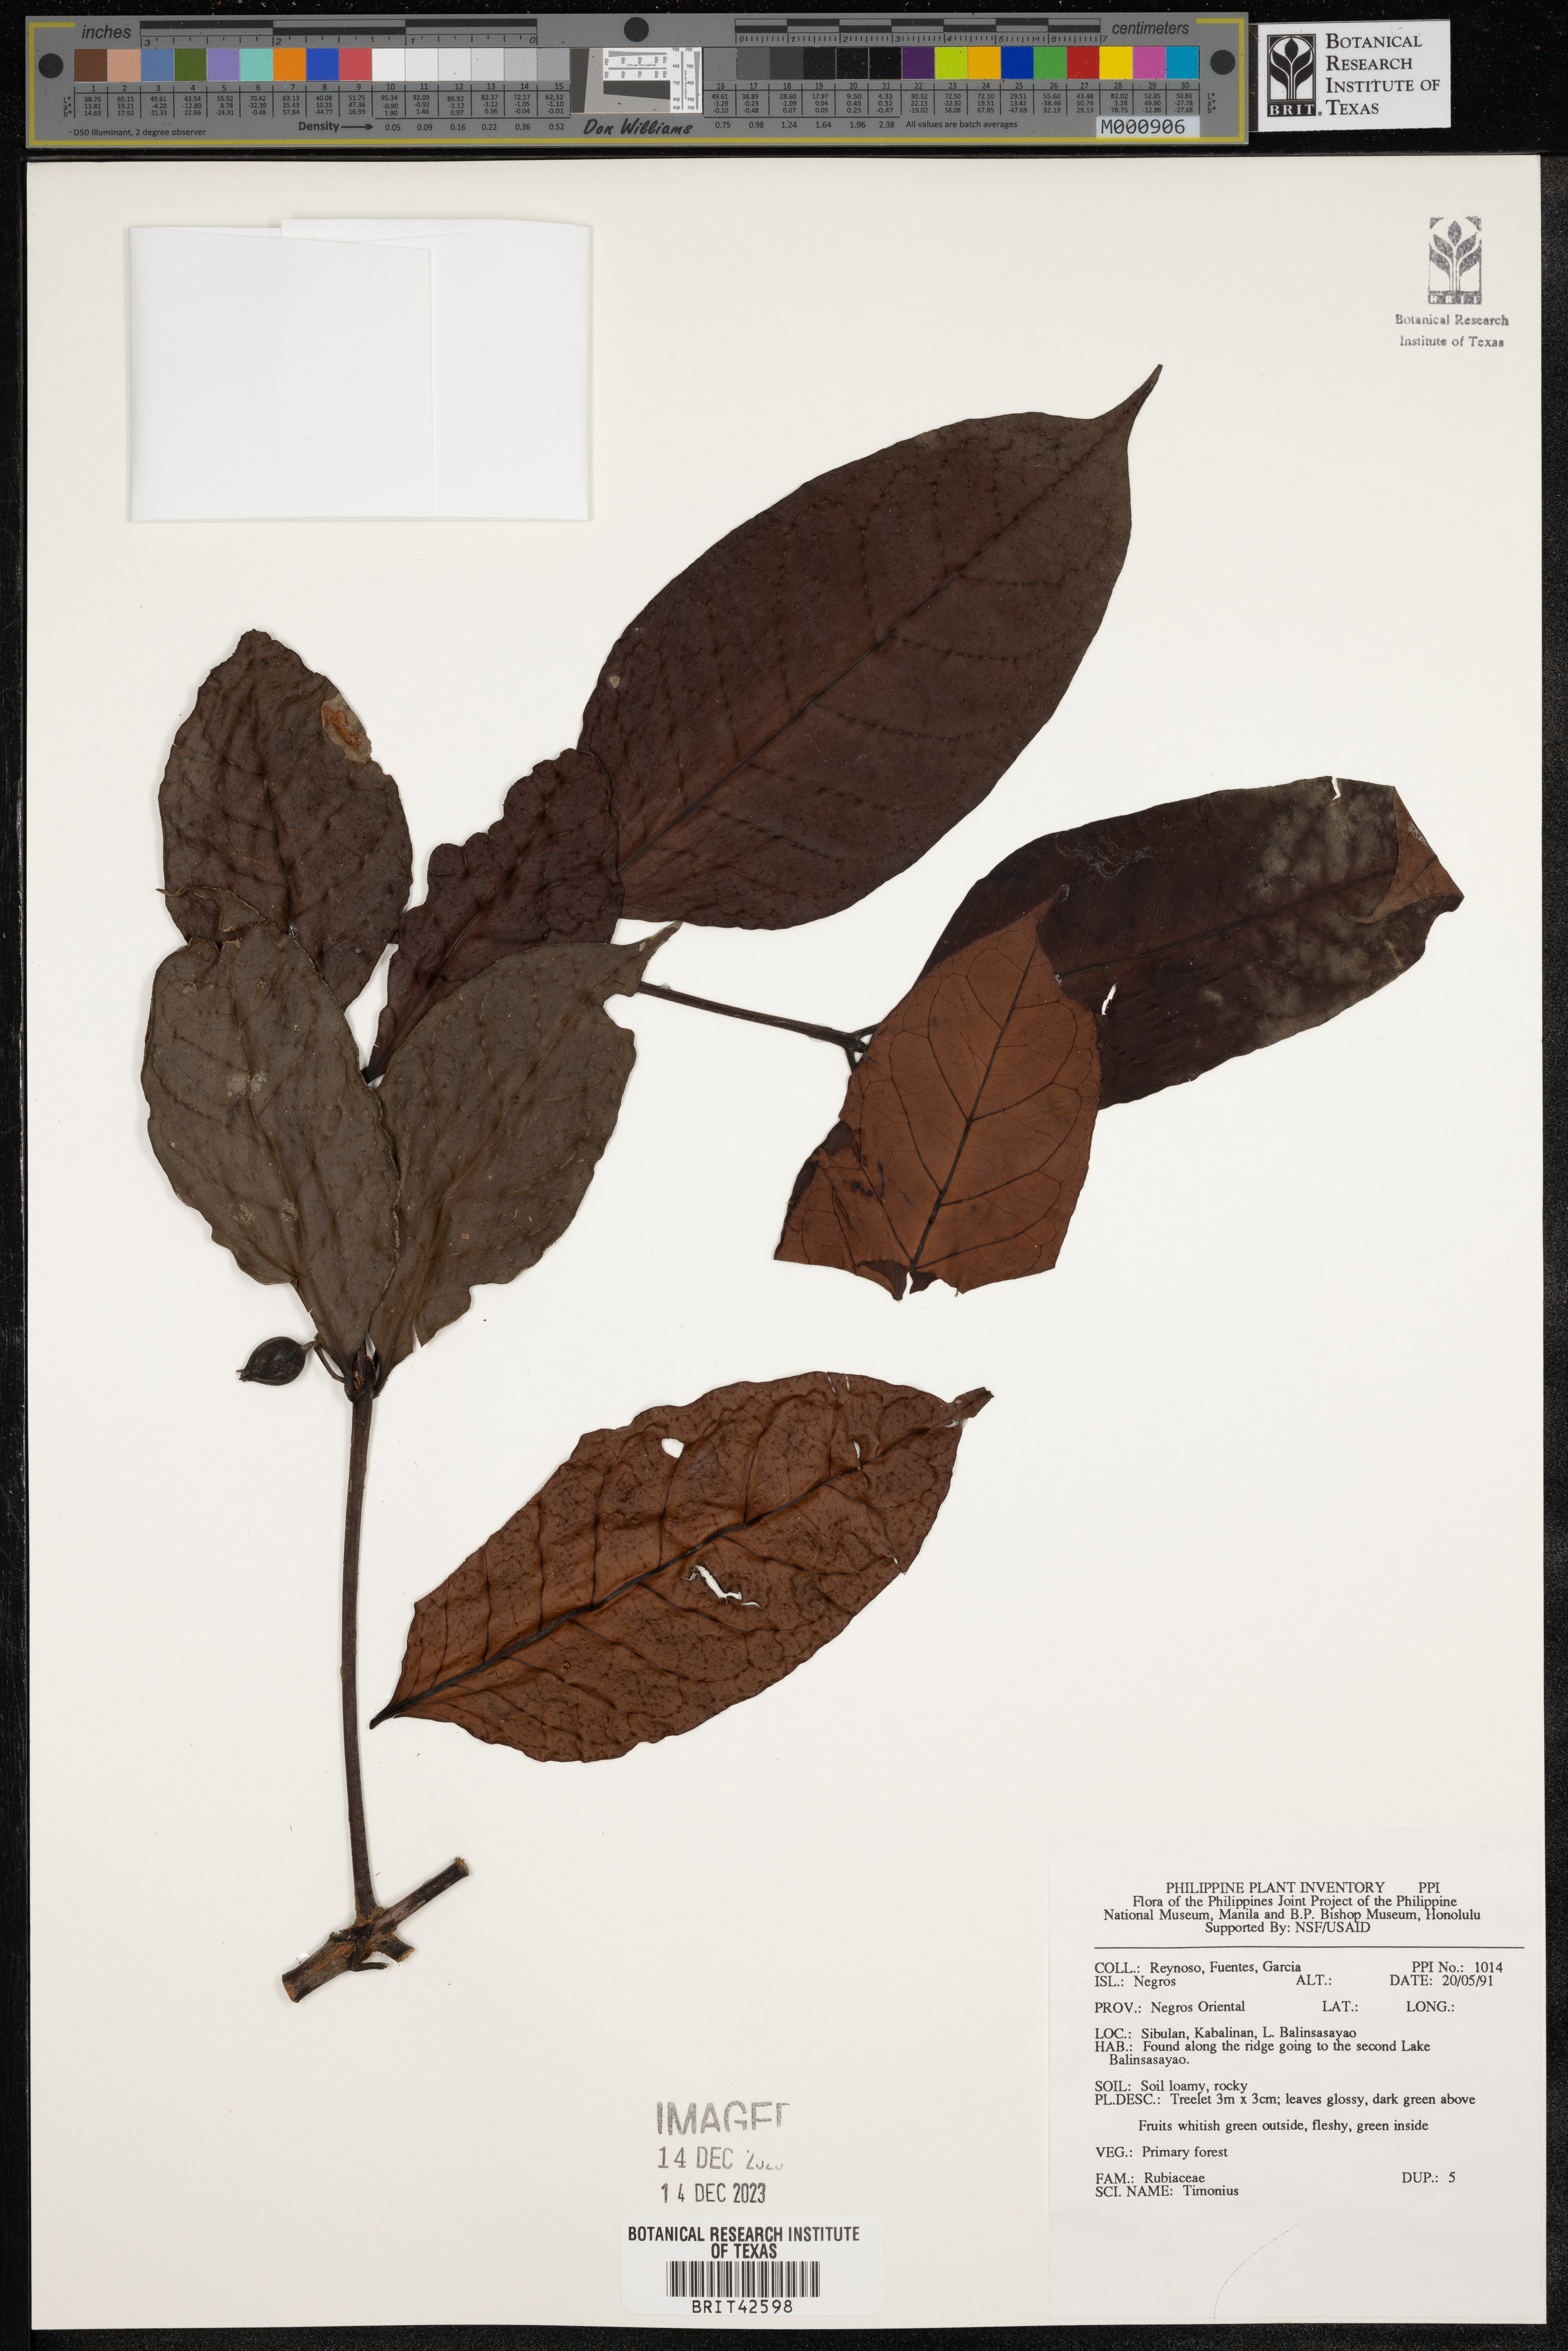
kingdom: Plantae
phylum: Tracheophyta
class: Magnoliopsida
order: Gentianales
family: Rubiaceae
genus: Timonius
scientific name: Timonius
